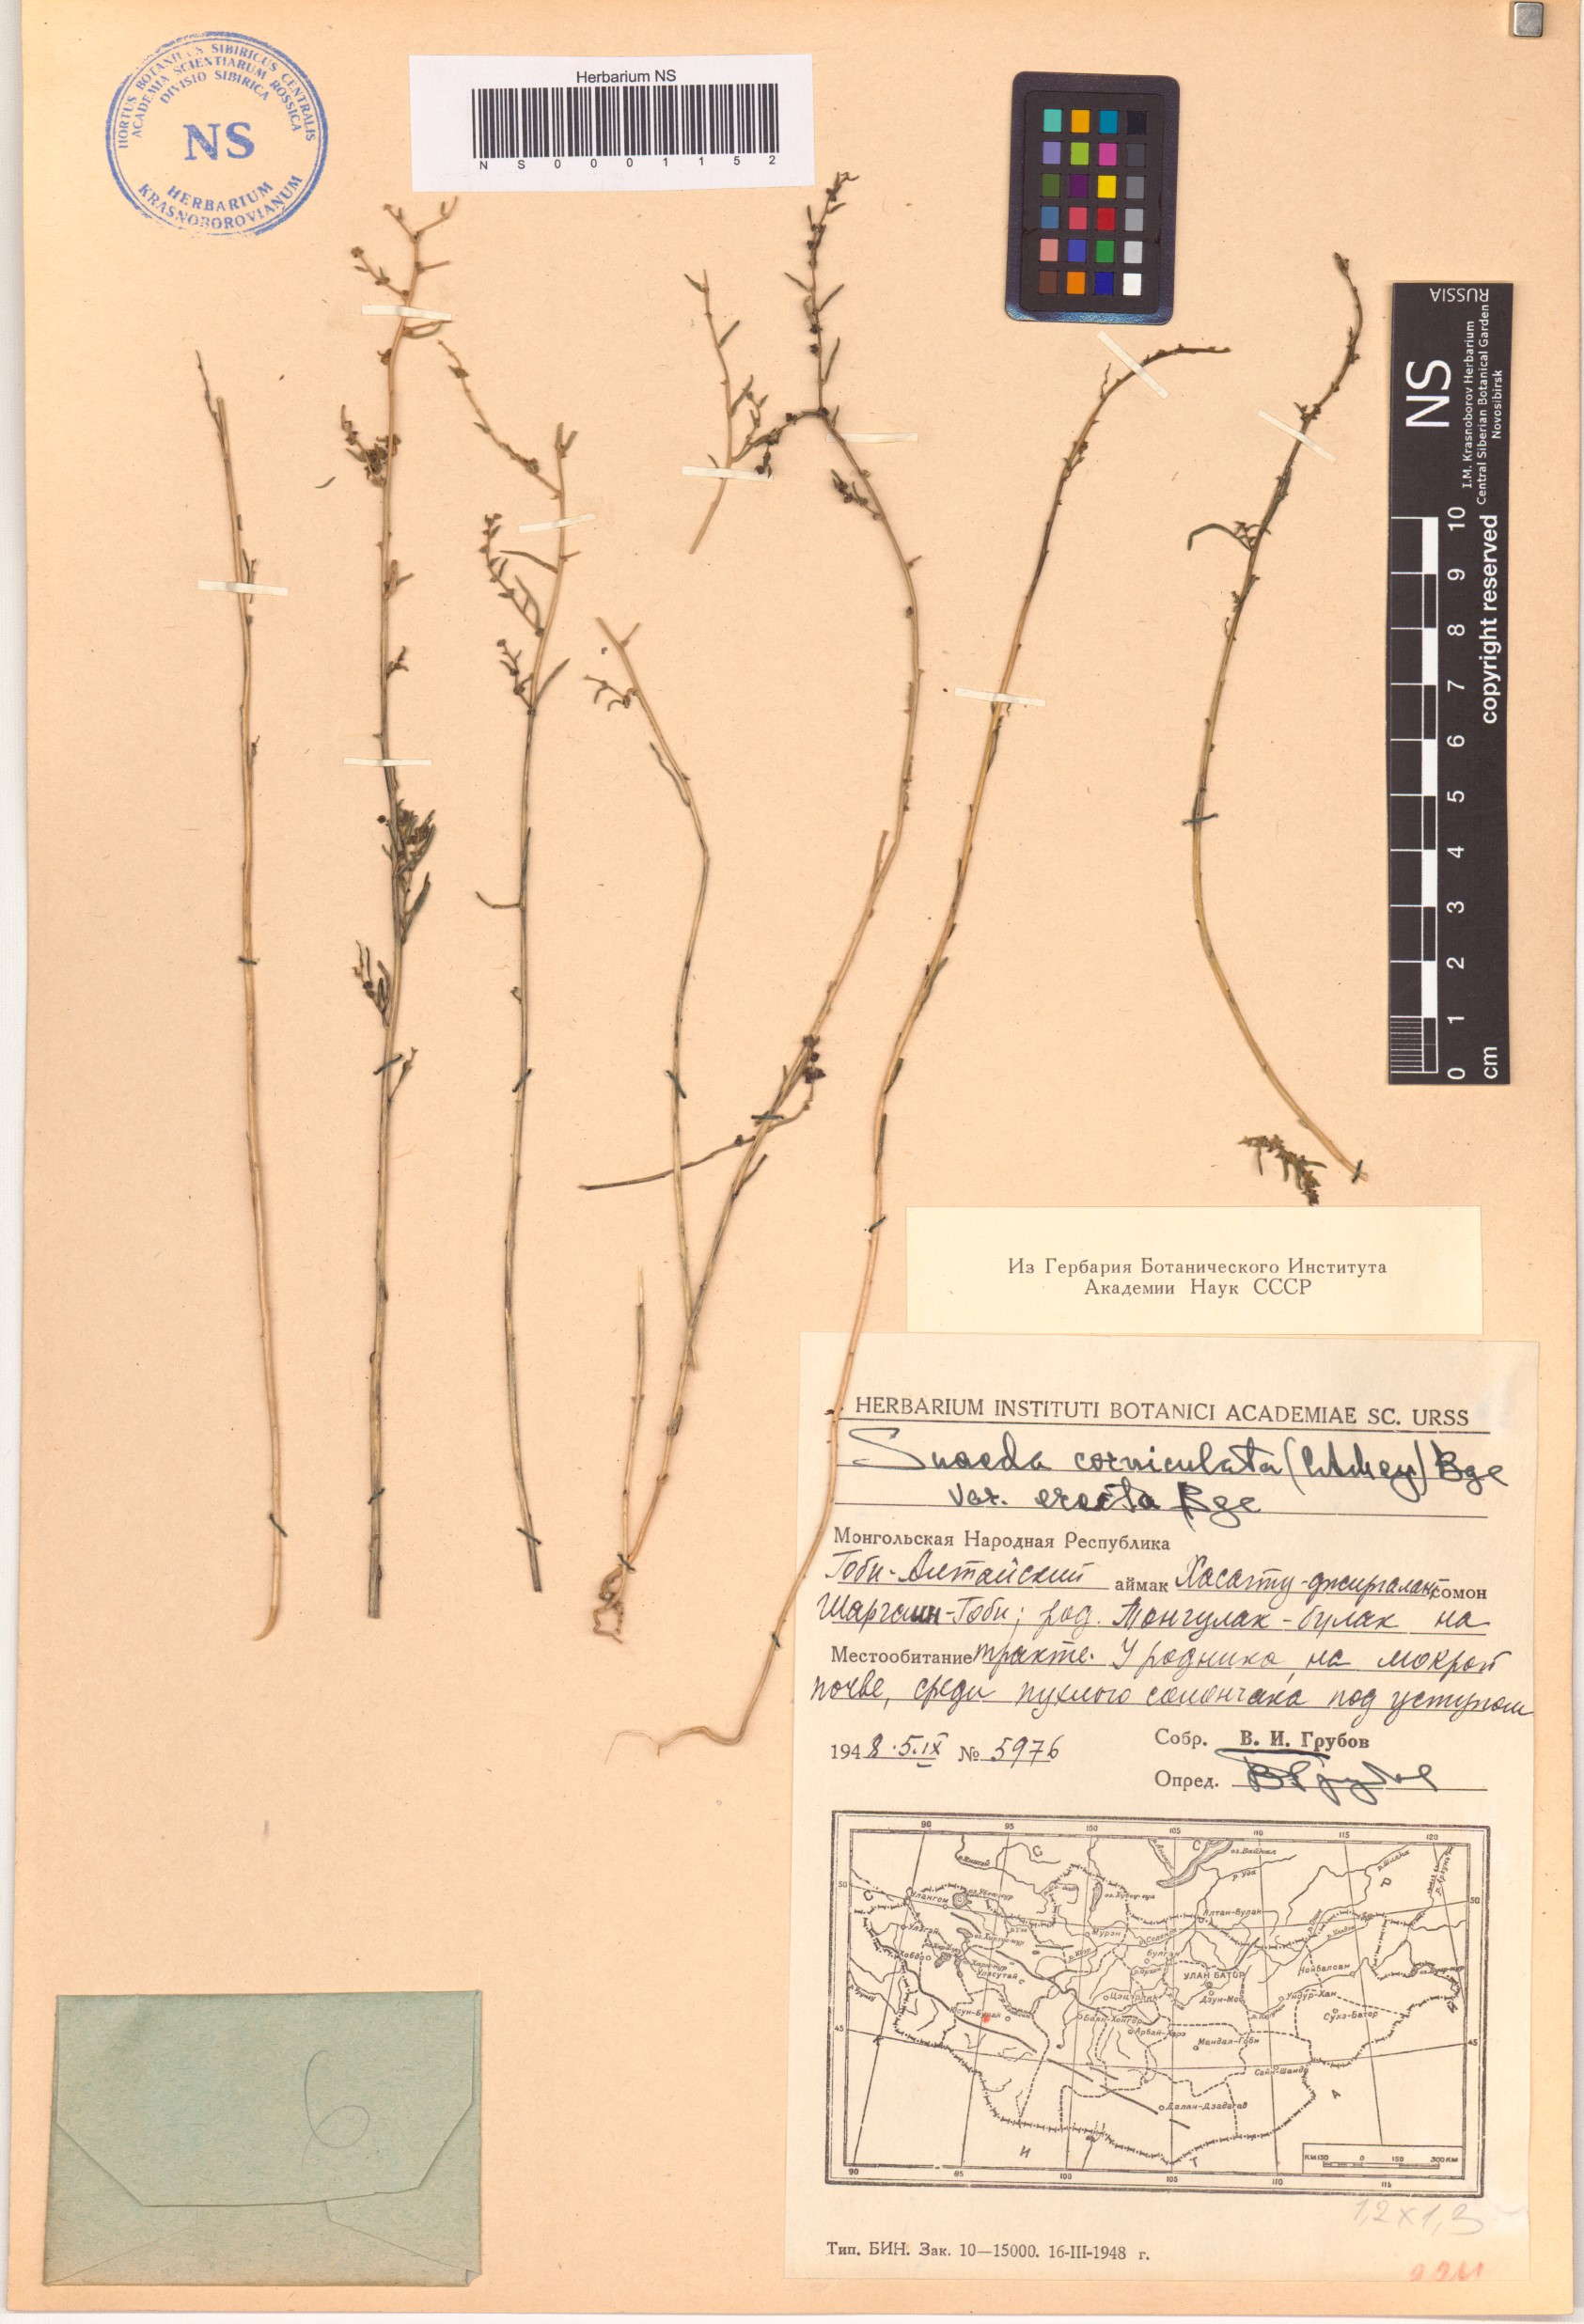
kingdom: Plantae
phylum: Tracheophyta
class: Magnoliopsida
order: Caryophyllales
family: Amaranthaceae
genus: Suaeda
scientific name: Suaeda corniculata
